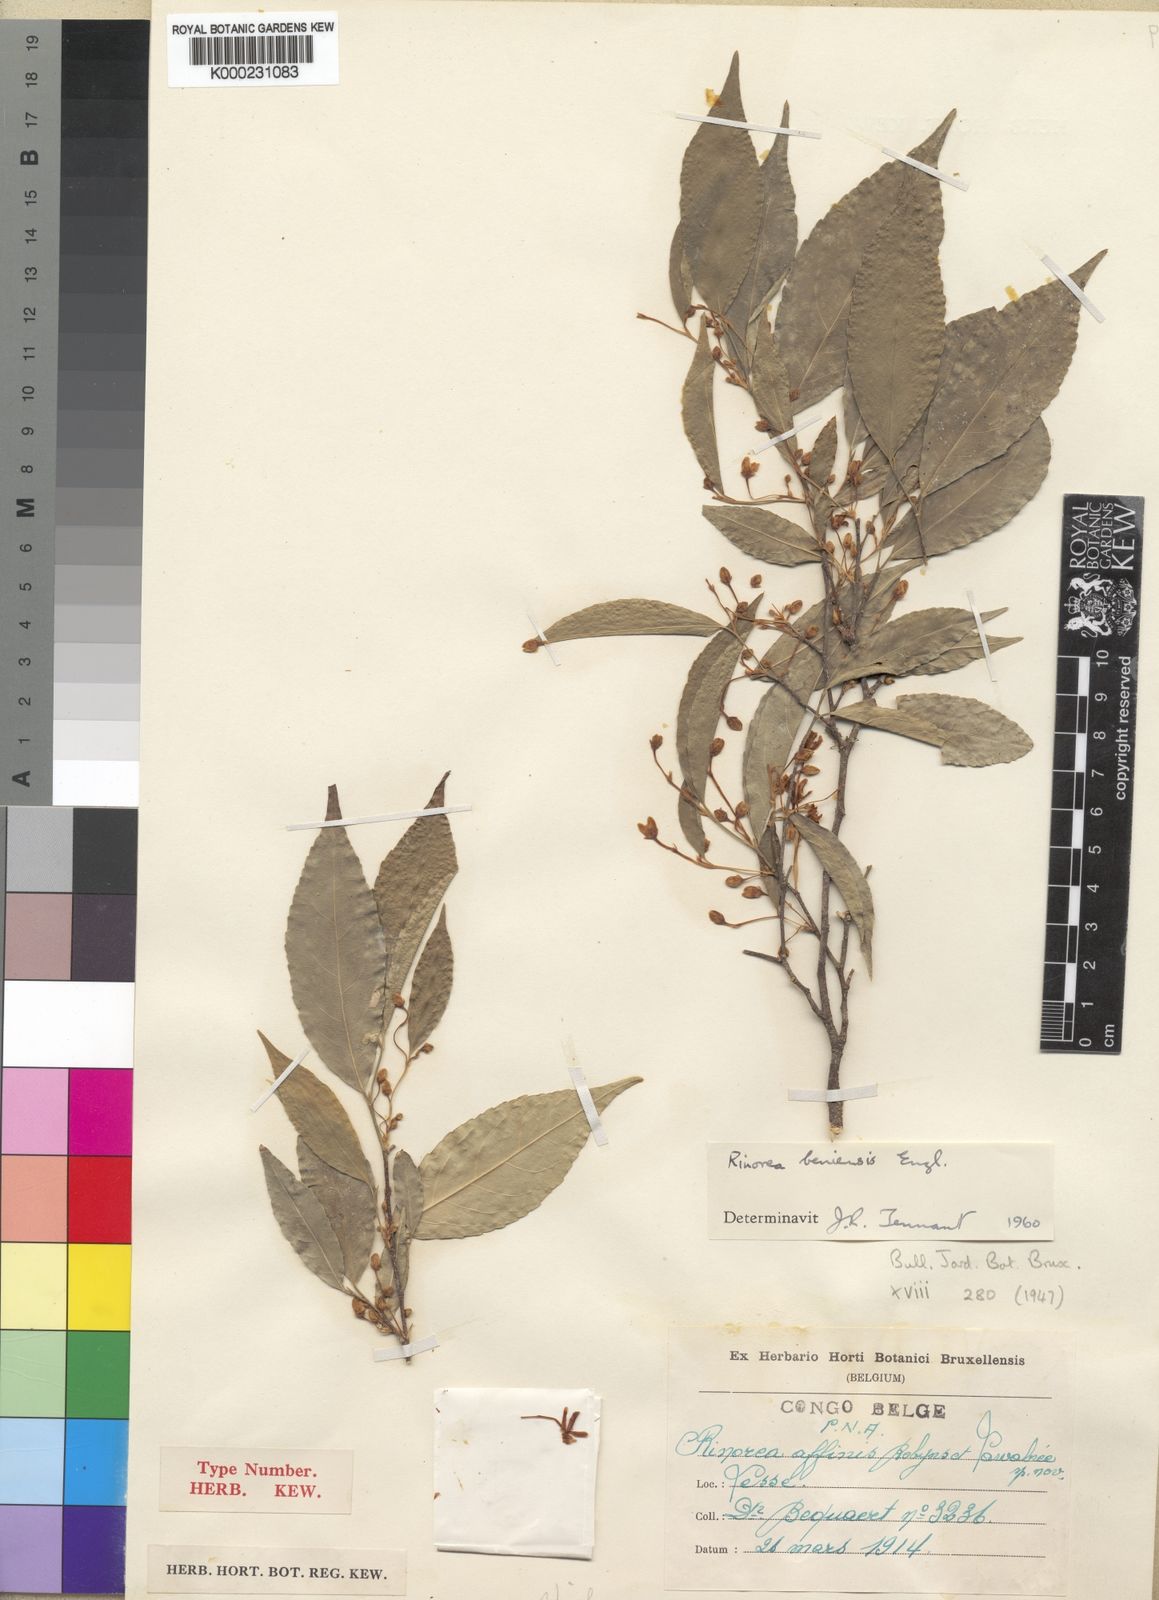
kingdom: Plantae
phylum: Tracheophyta
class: Magnoliopsida
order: Malpighiales
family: Violaceae
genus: Rinorea
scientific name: Rinorea beniensis
